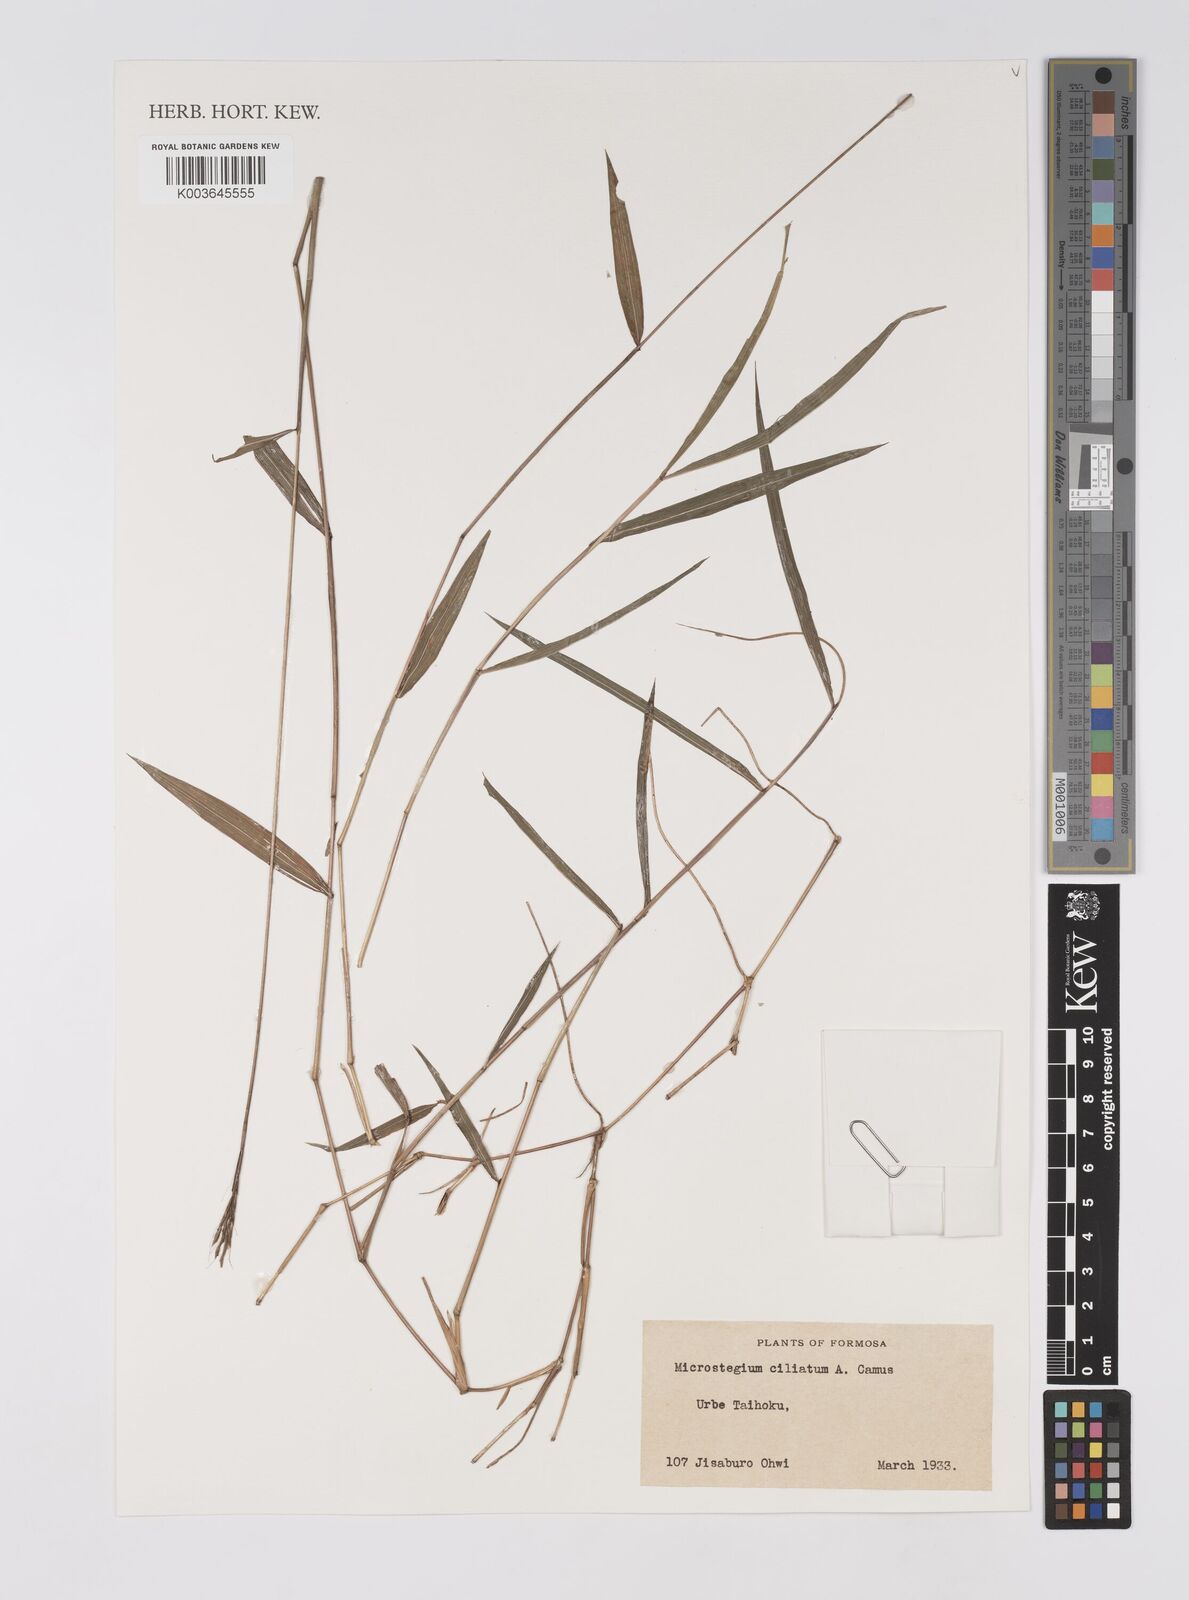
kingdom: Plantae
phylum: Tracheophyta
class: Liliopsida
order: Poales
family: Poaceae
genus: Microstegium
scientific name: Microstegium fasciculatum
